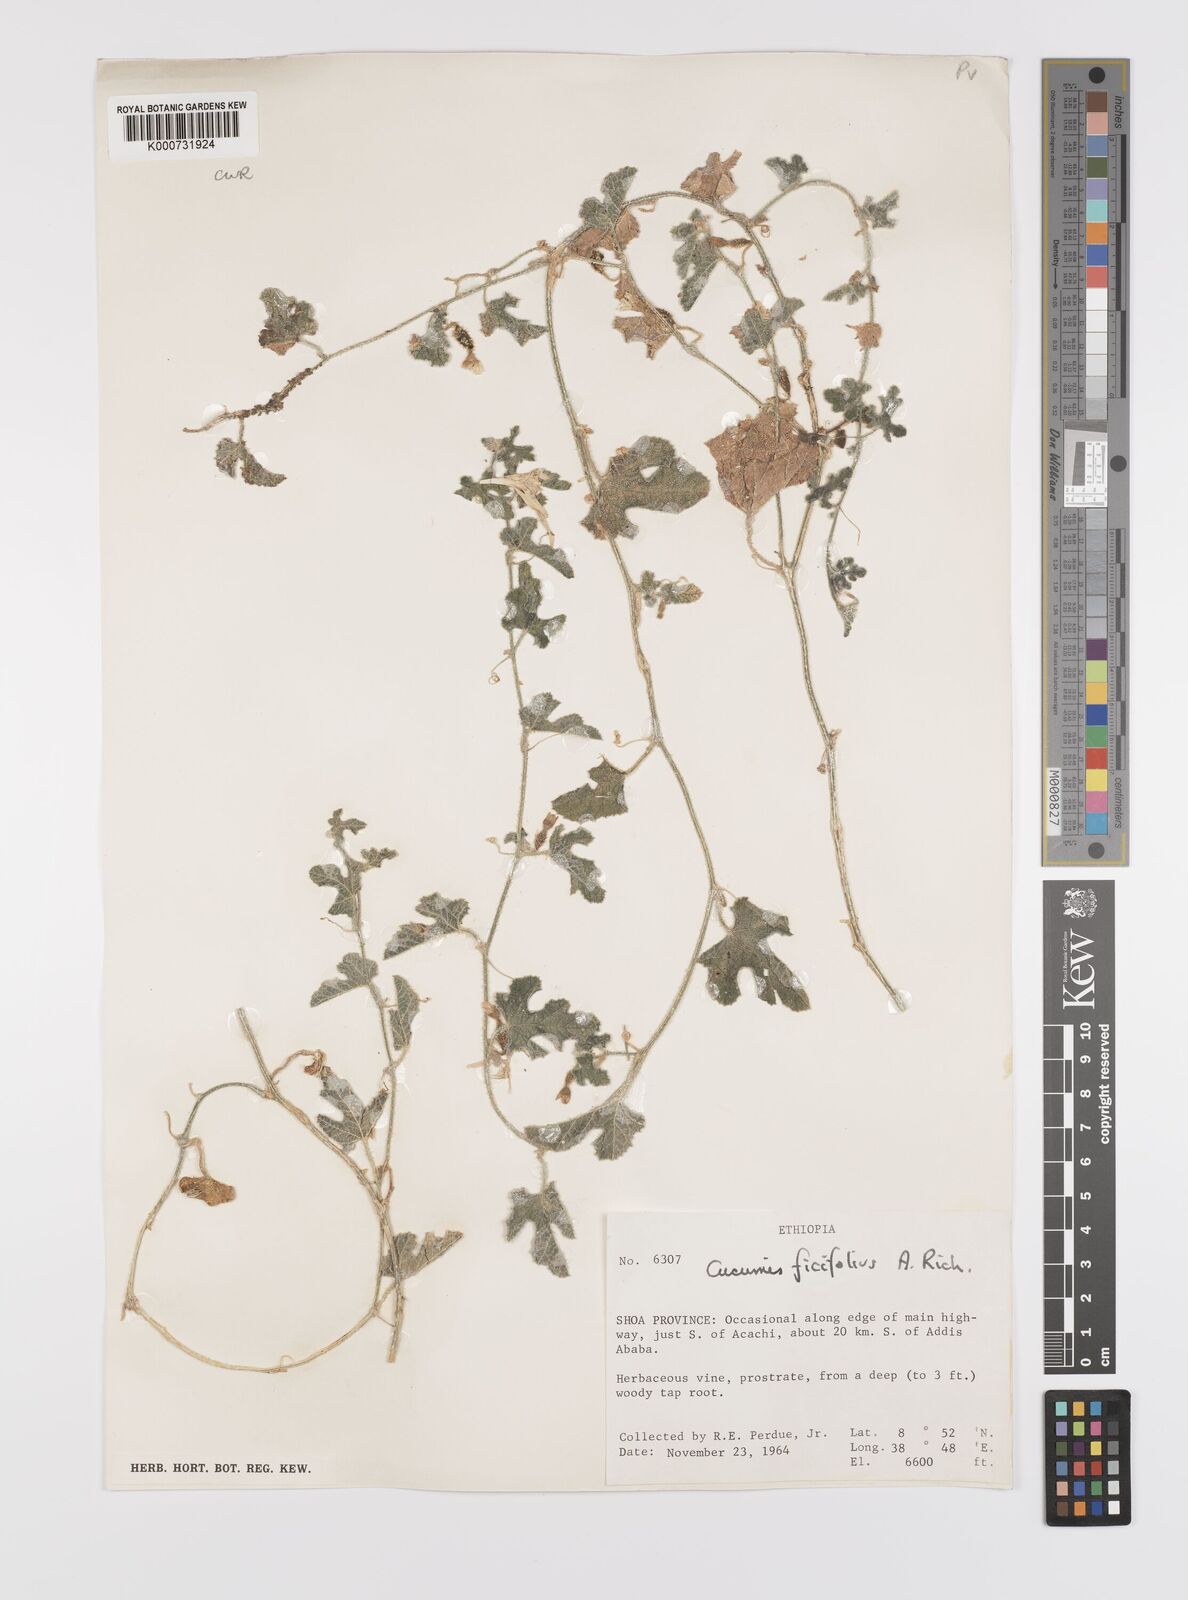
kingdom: Plantae
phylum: Tracheophyta
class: Magnoliopsida
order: Cucurbitales
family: Cucurbitaceae
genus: Cucumis
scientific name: Cucumis ficifolius
